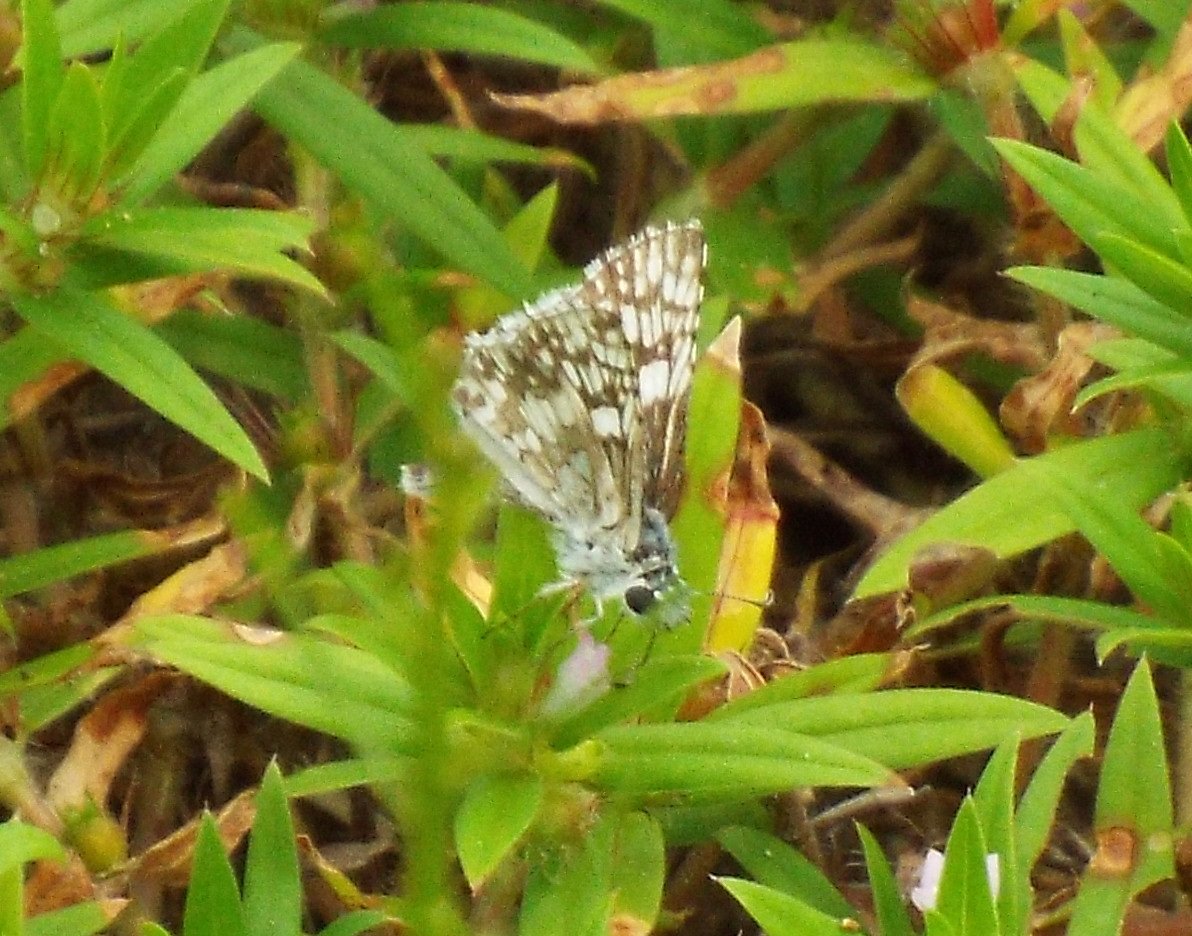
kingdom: Animalia
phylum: Arthropoda
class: Insecta
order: Lepidoptera
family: Hesperiidae
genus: Pyrgus
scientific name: Pyrgus communis
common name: White Checkered-Skipper
